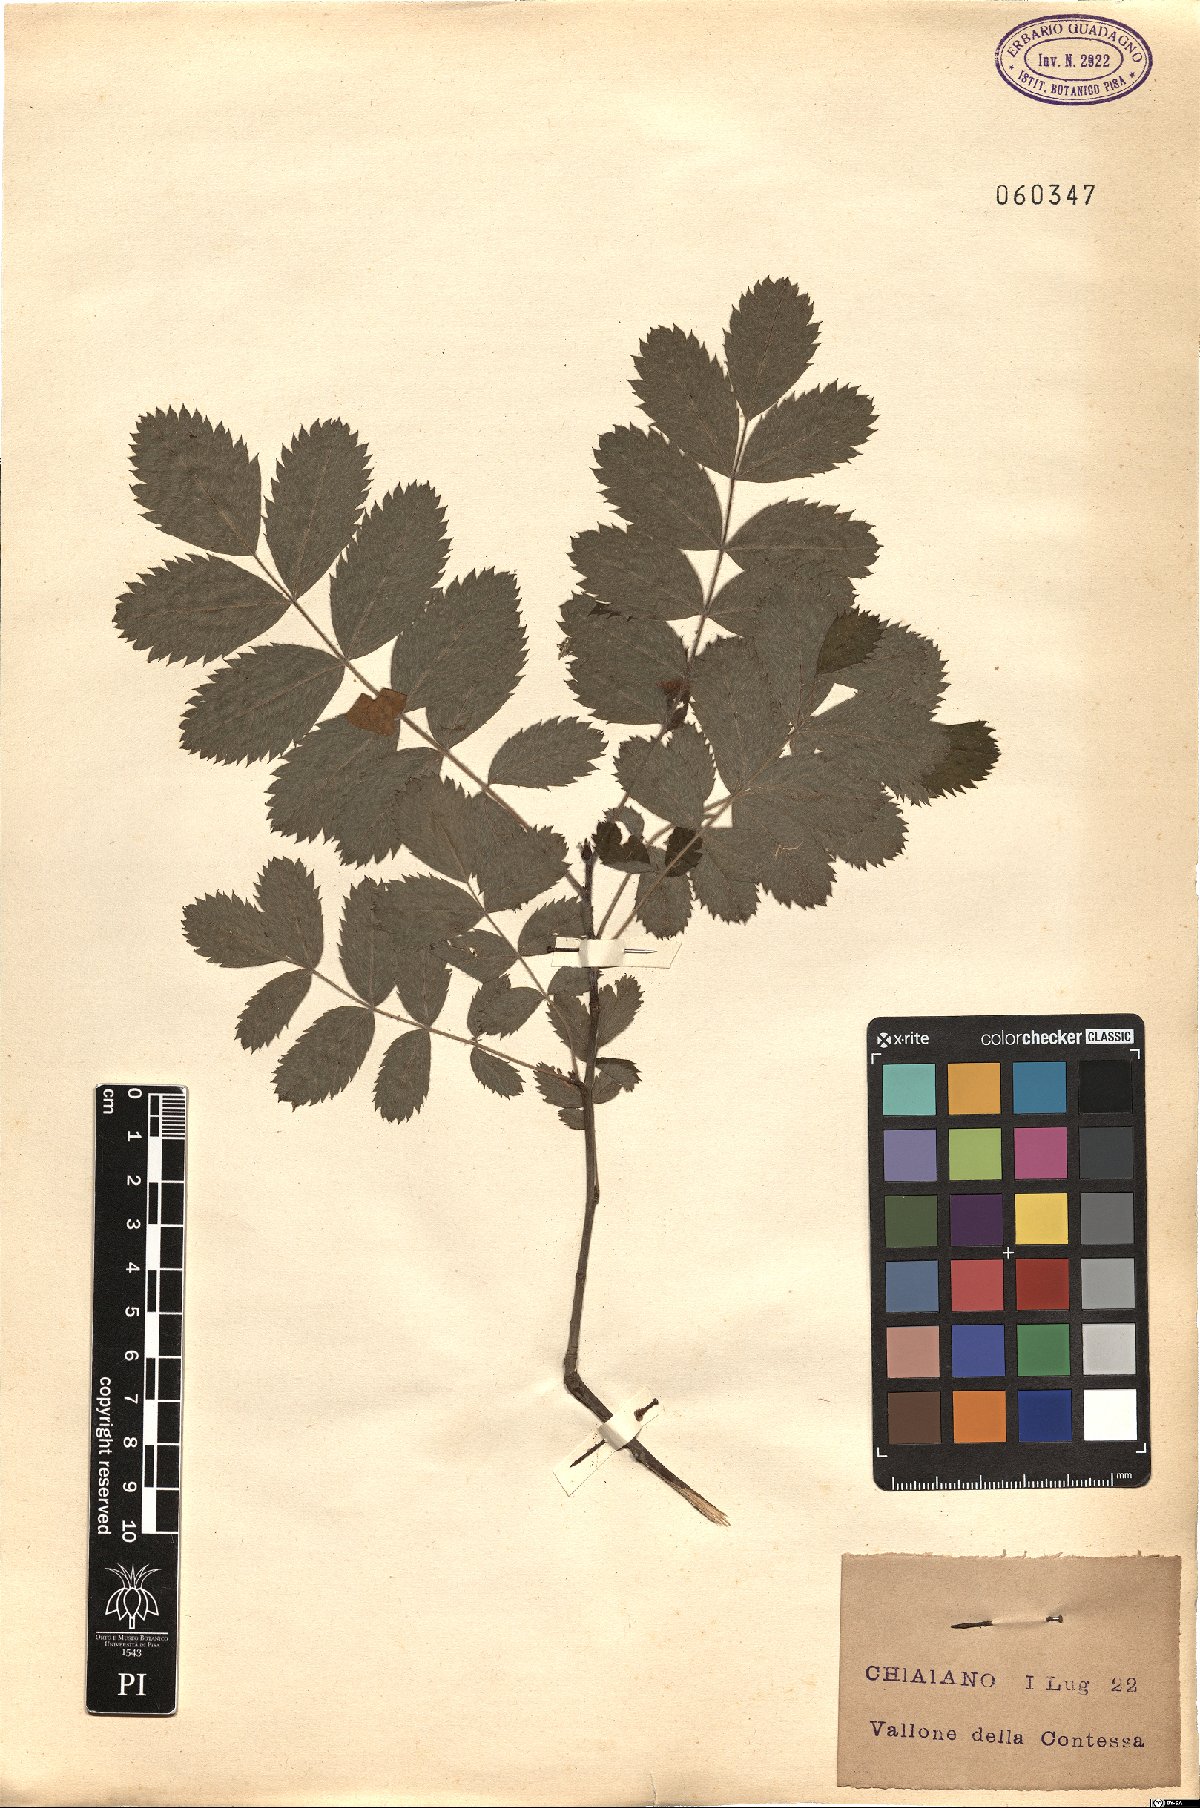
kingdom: Plantae
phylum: Tracheophyta
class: Magnoliopsida
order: Rosales
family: Rosaceae
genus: Sorbus
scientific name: Sorbus aucuparia
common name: Rowan
